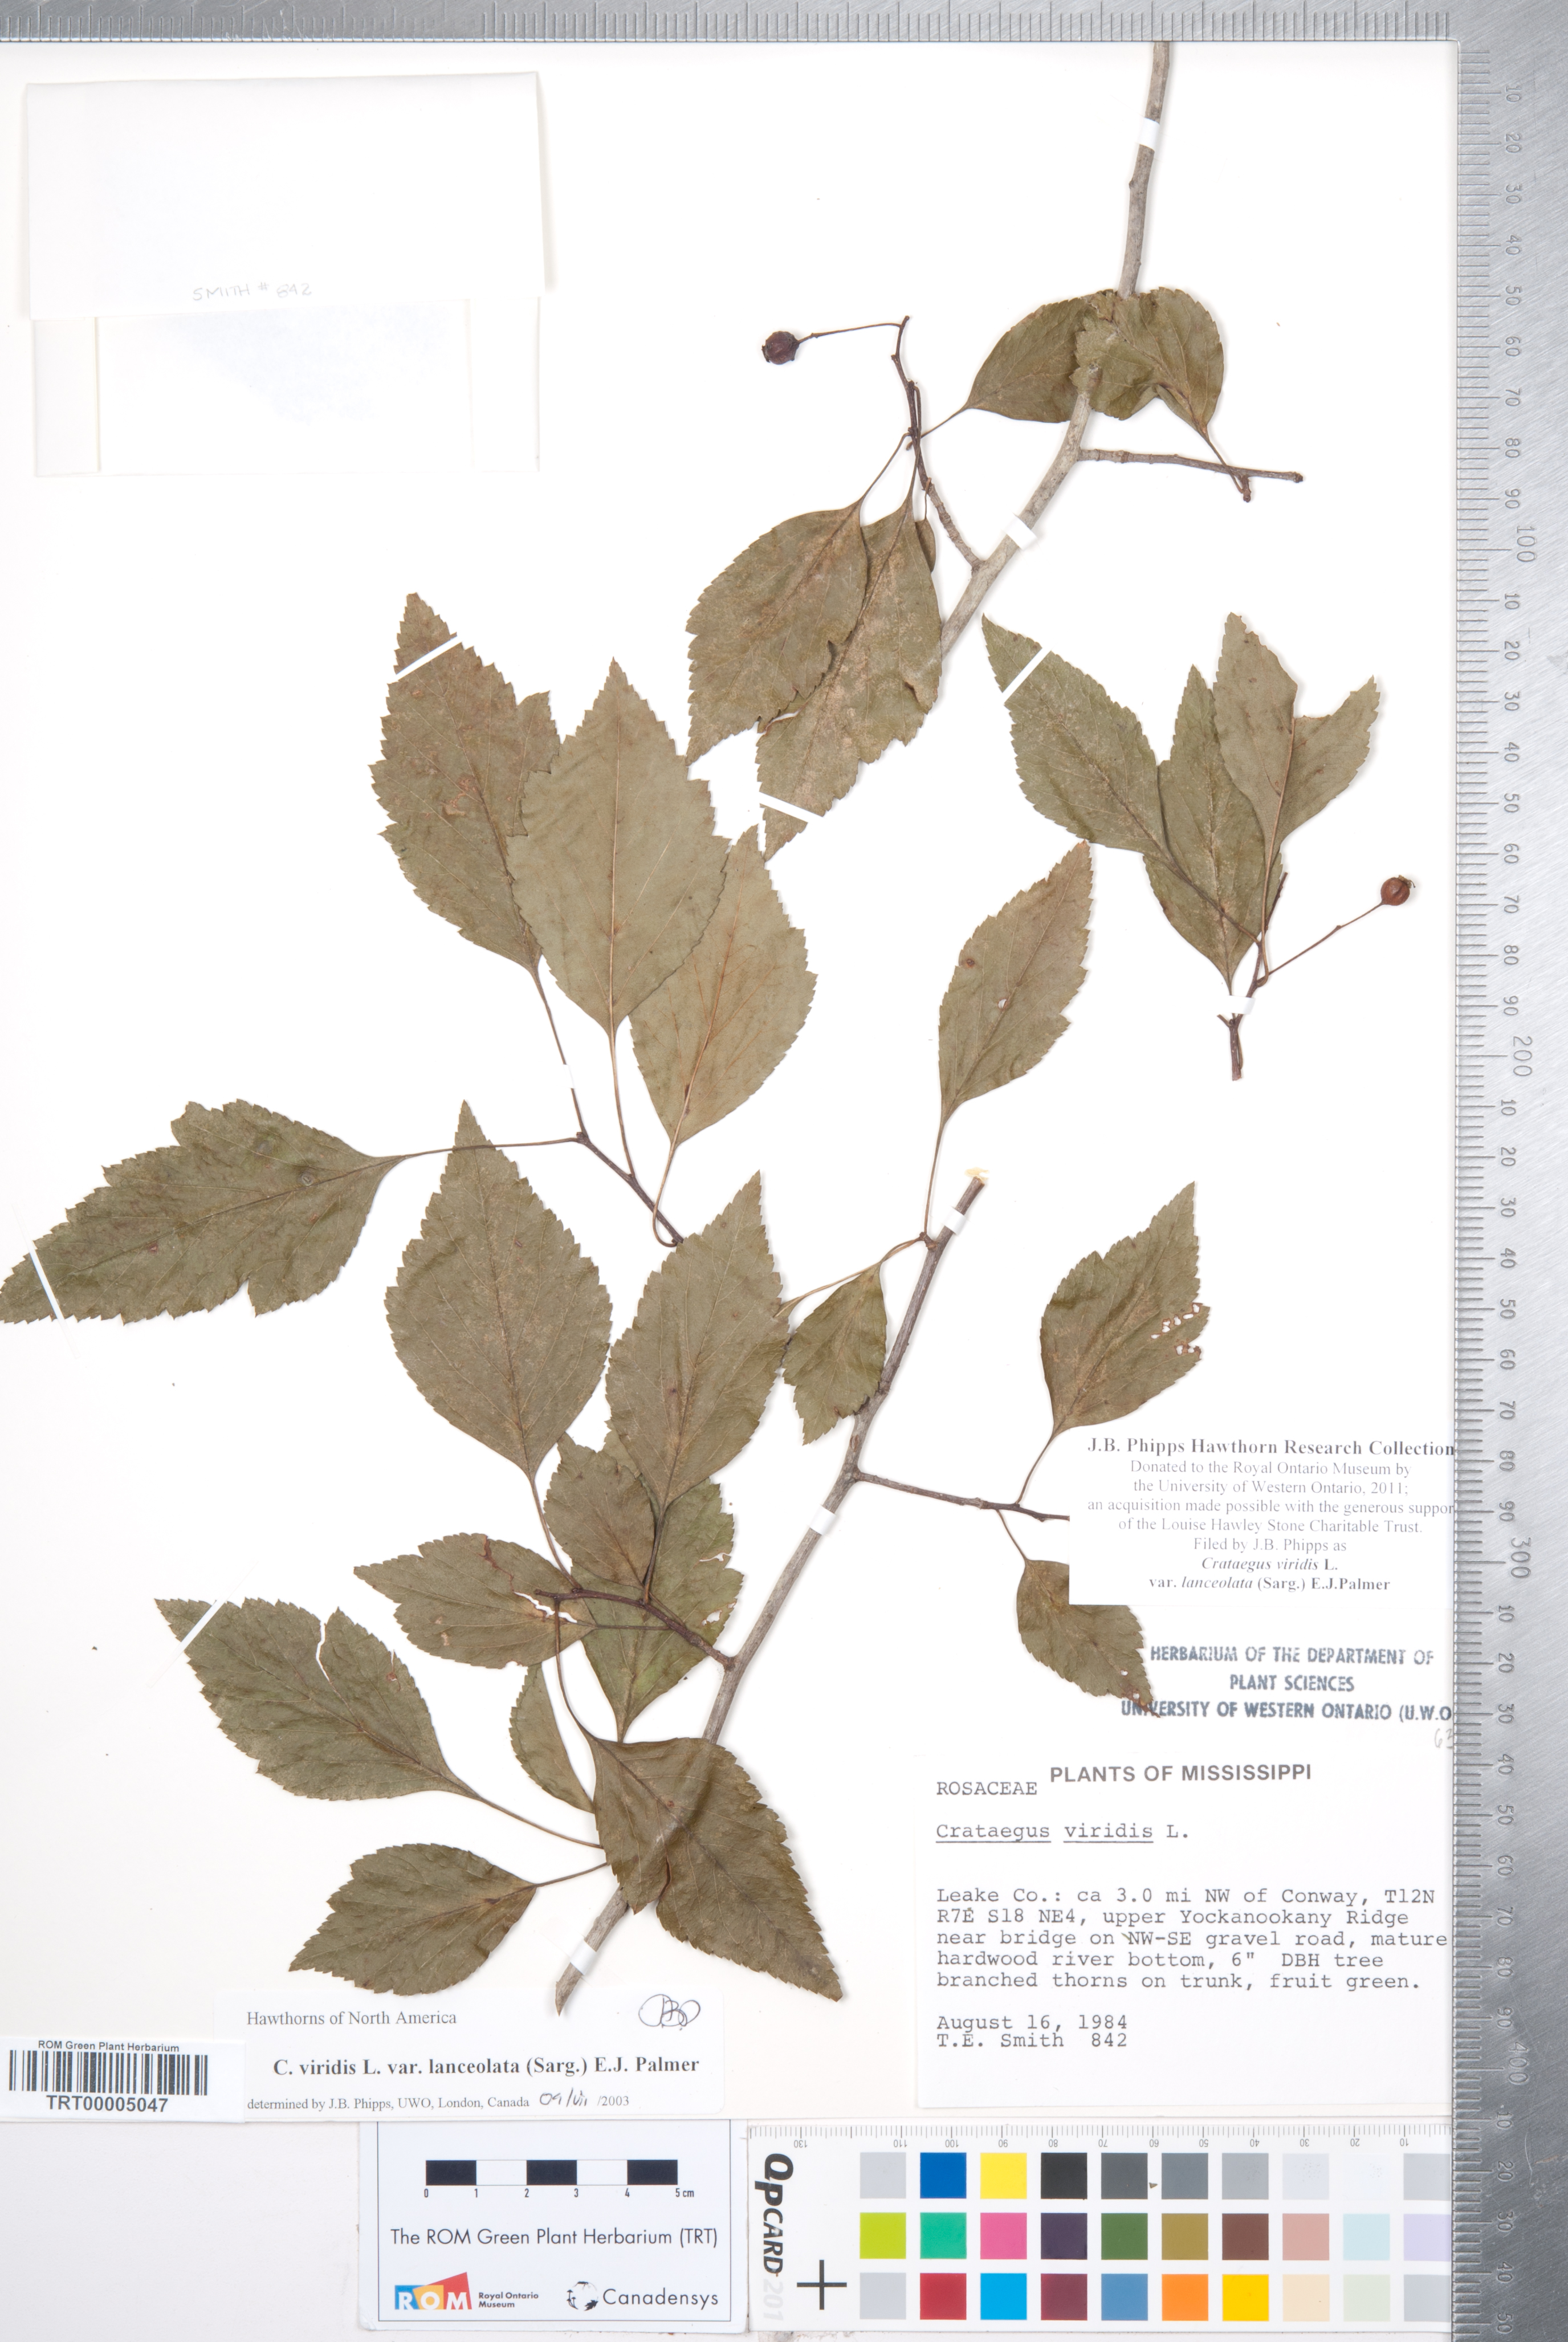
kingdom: Plantae
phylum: Tracheophyta
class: Magnoliopsida
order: Rosales
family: Rosaceae
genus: Crataegus
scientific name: Crataegus viridis
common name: Southernthorn
